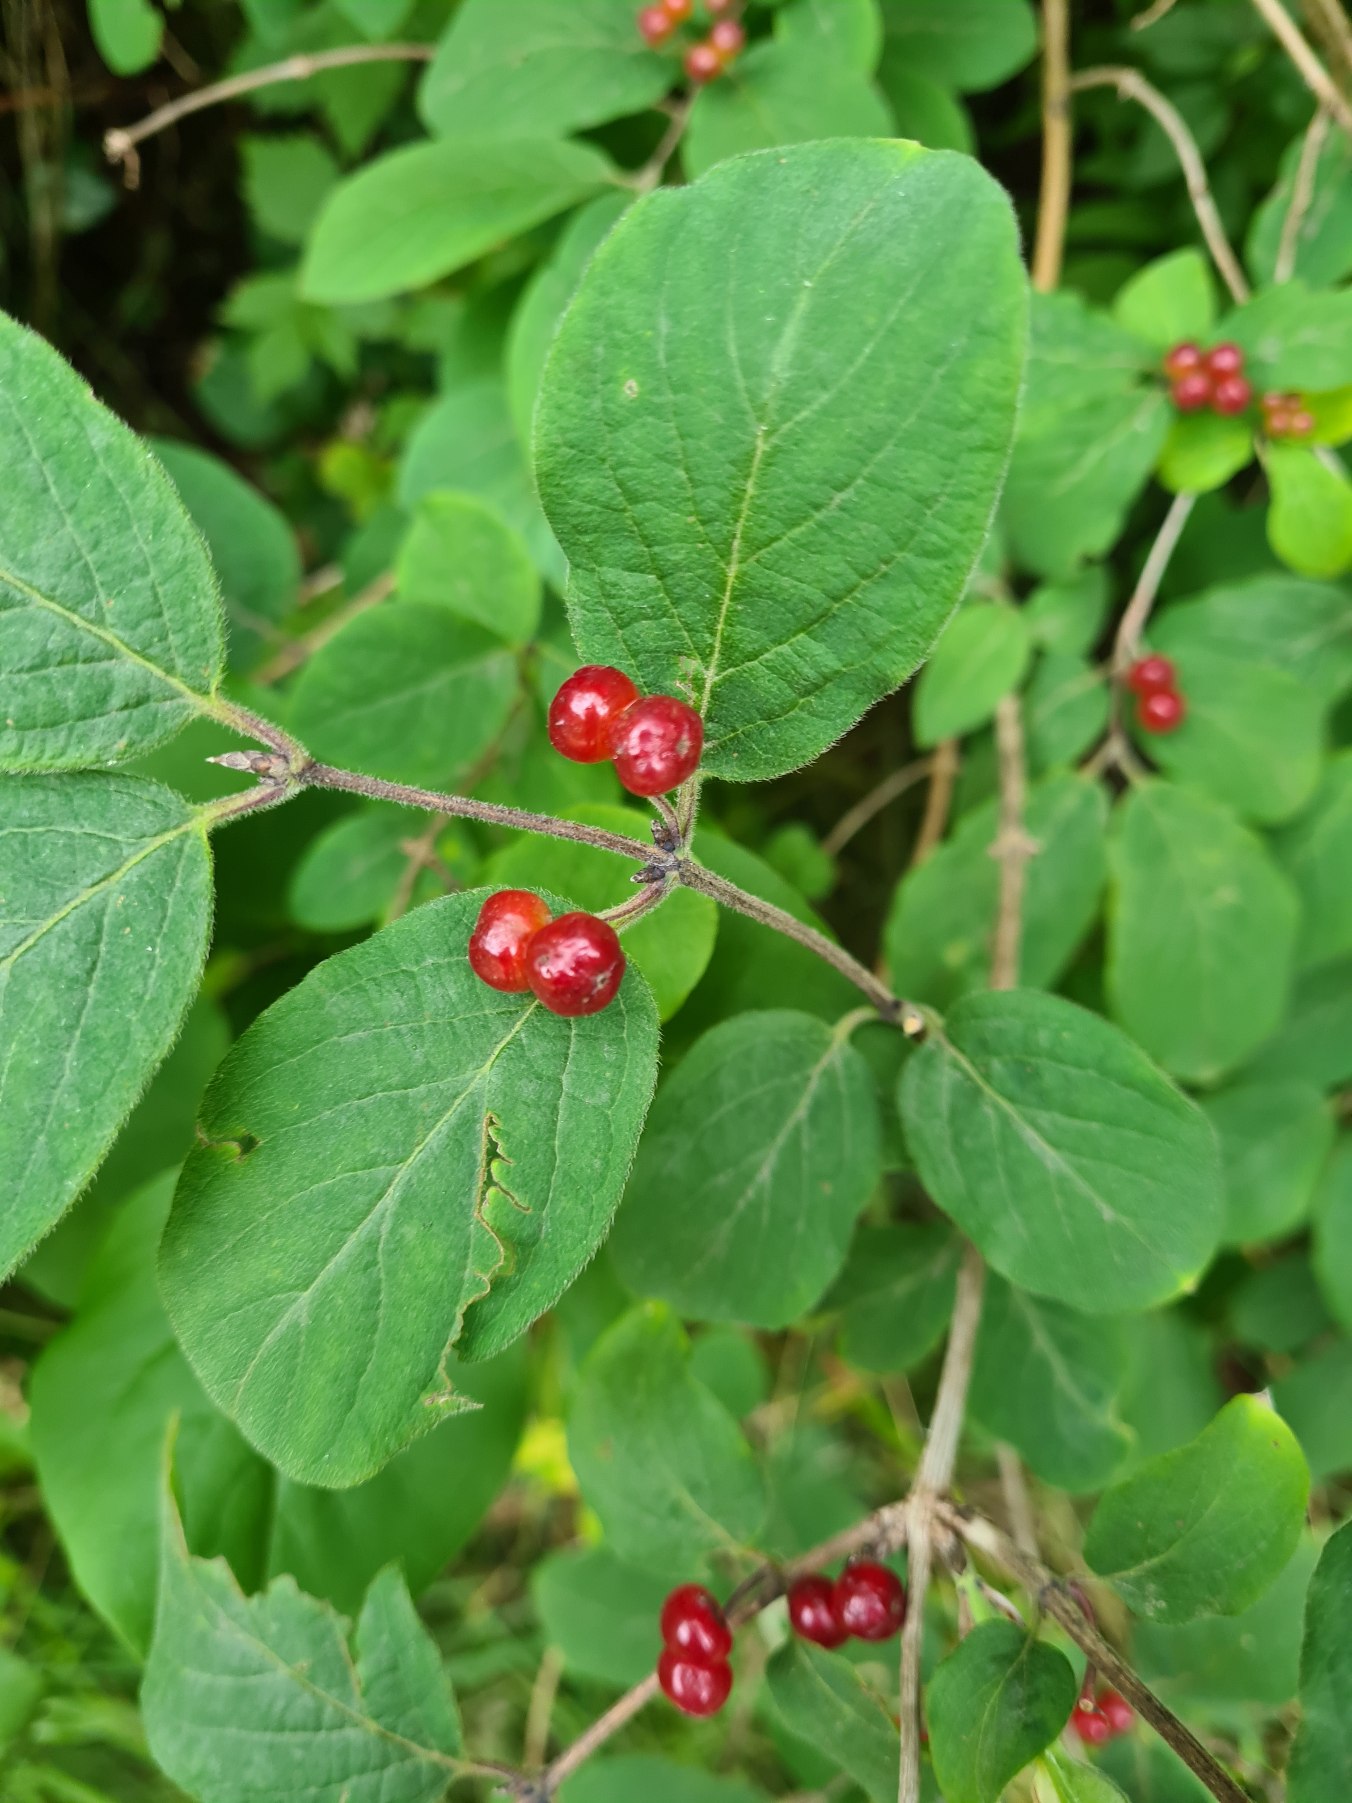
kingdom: Plantae
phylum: Tracheophyta
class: Magnoliopsida
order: Dipsacales
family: Caprifoliaceae
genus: Lonicera
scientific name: Lonicera xylosteum
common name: Dunet gedeblad
